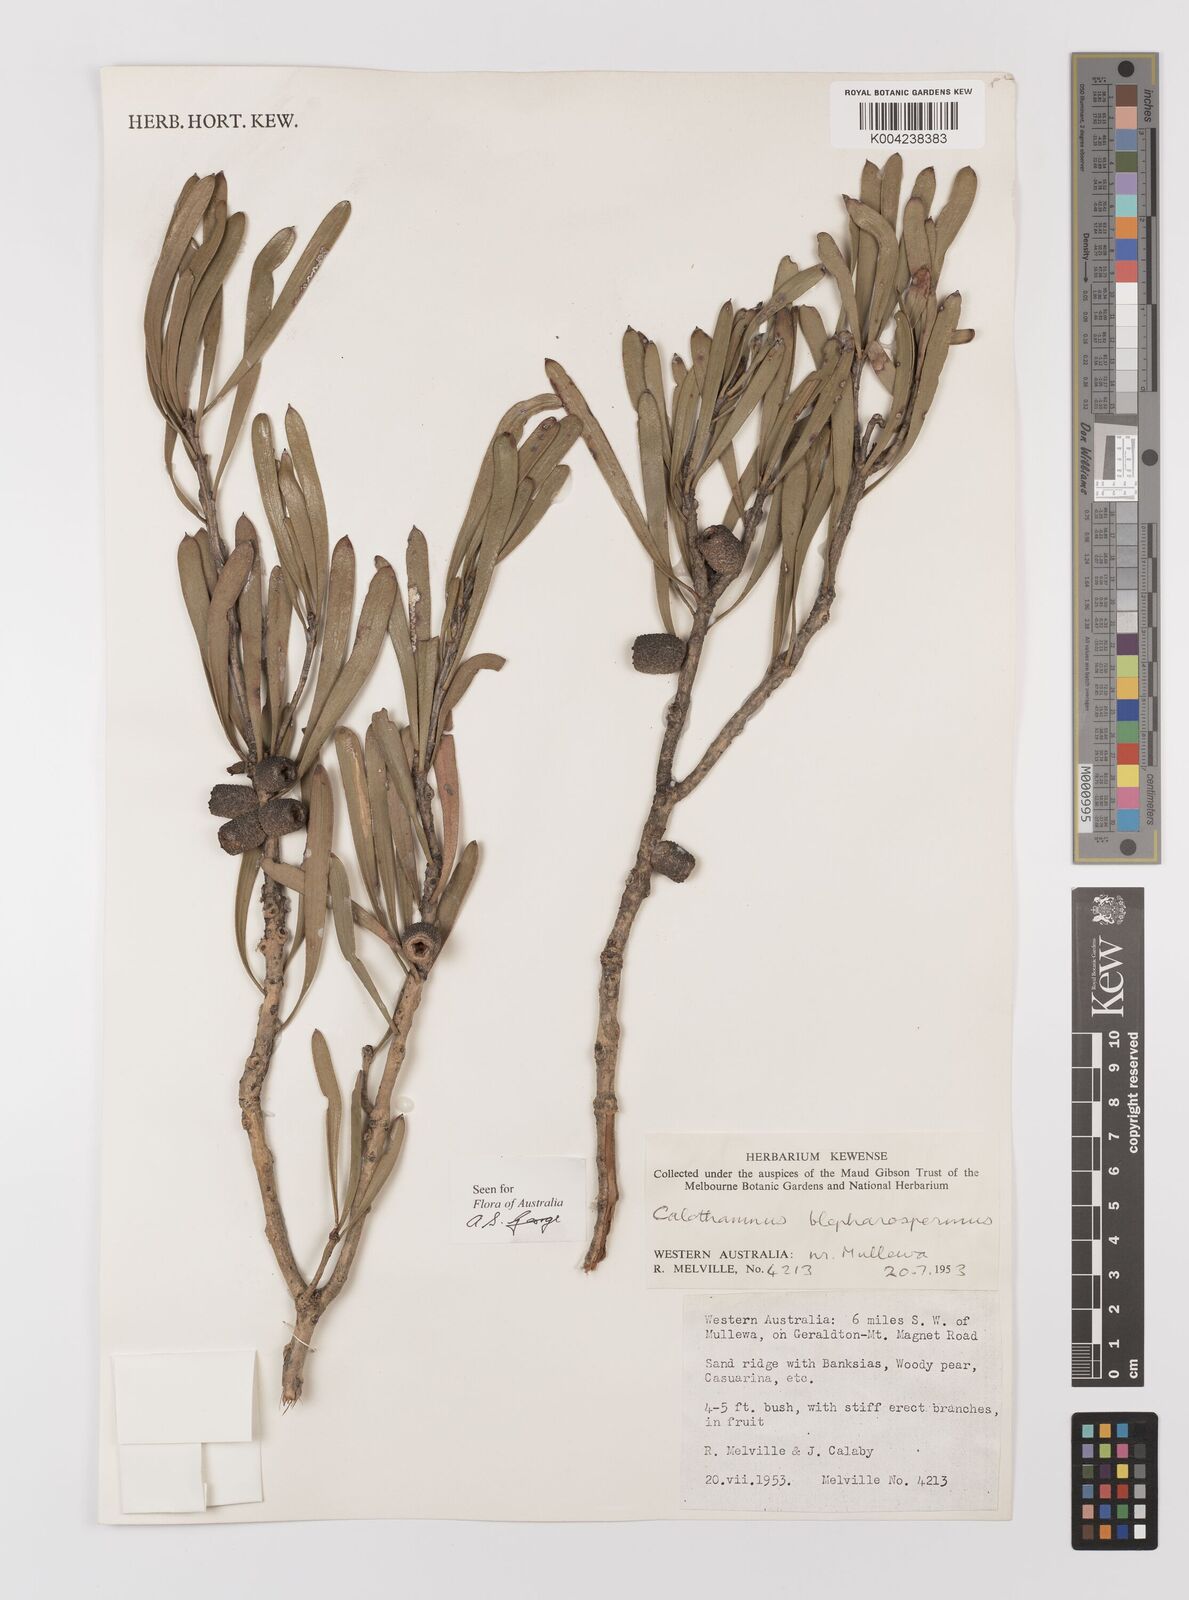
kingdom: Plantae
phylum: Tracheophyta
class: Magnoliopsida
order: Myrtales
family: Myrtaceae
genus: Melaleuca
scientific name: Melaleuca blepharosperma
